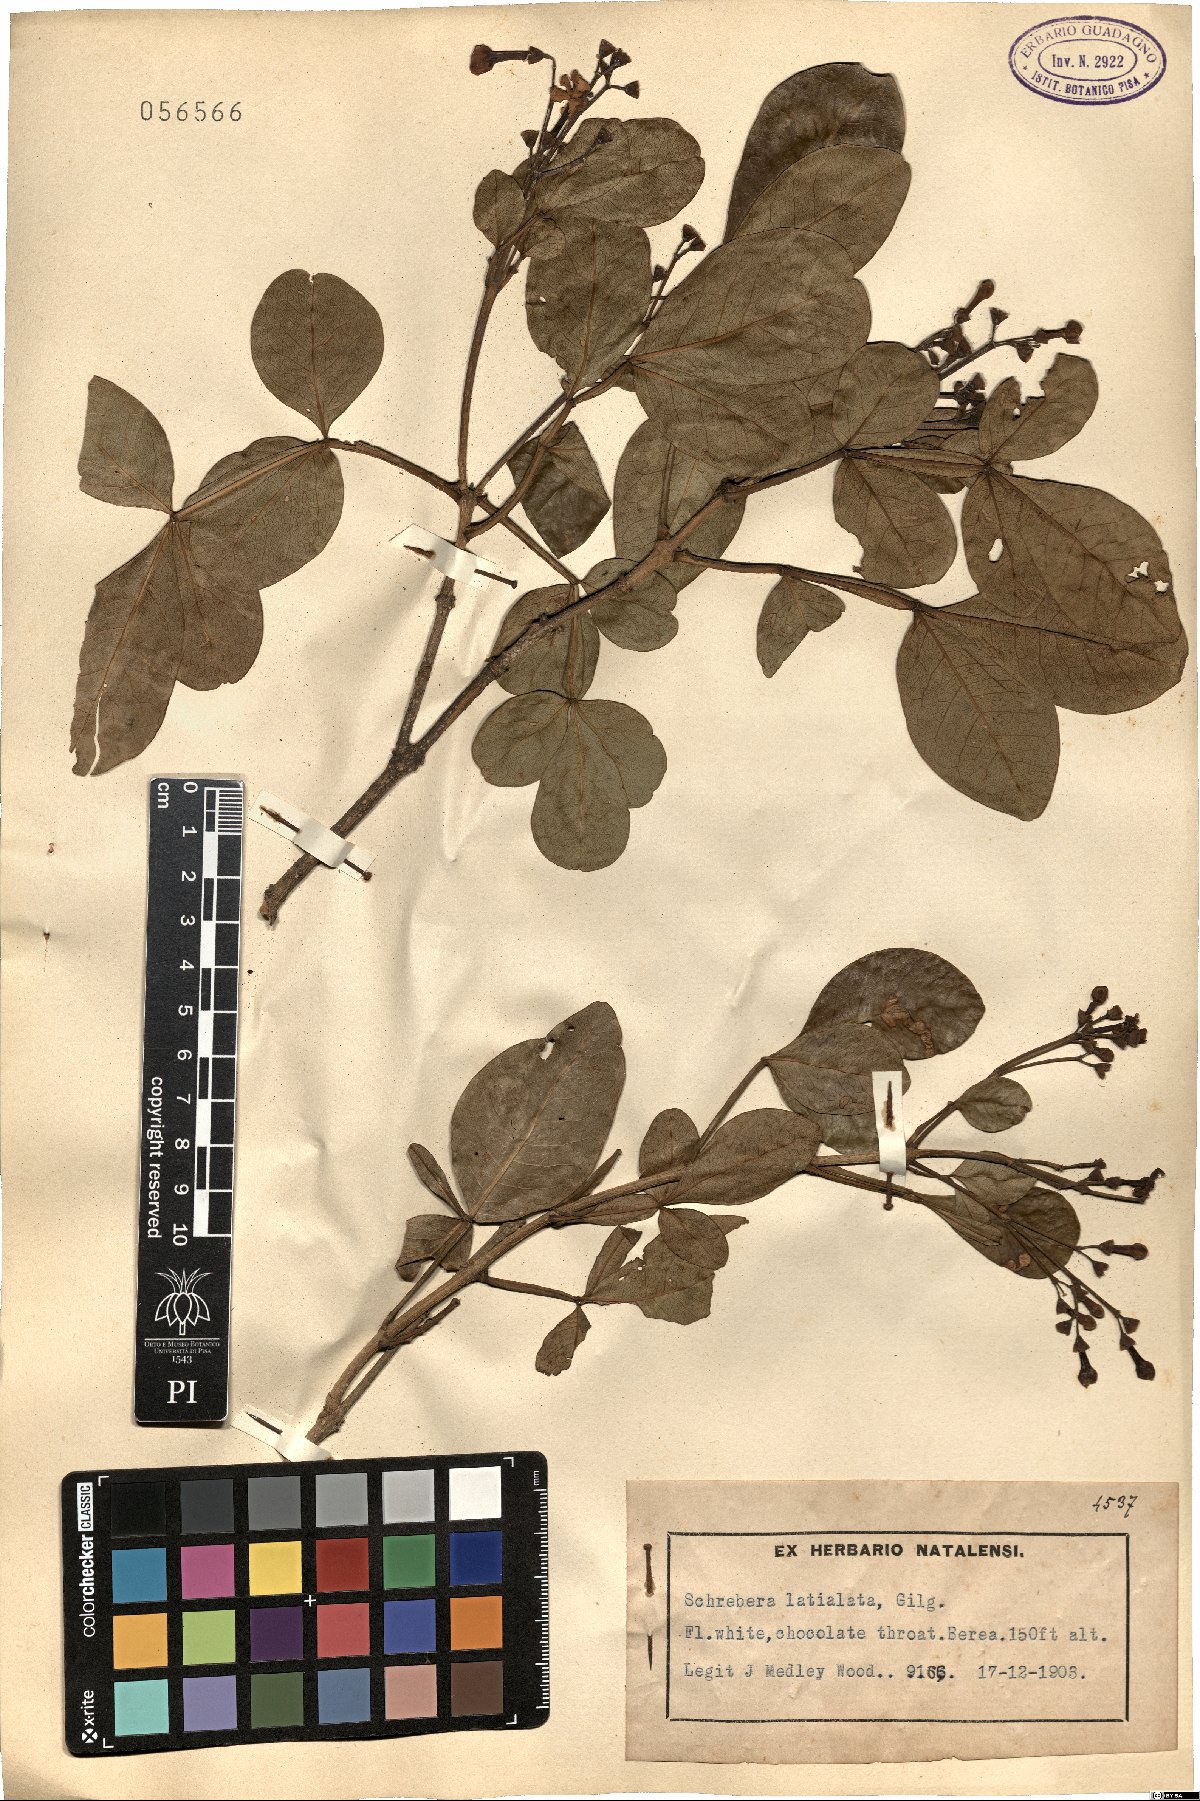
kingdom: Plantae
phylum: Tracheophyta
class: Magnoliopsida
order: Lamiales
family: Oleaceae
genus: Schrebera
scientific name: Schrebera alata
